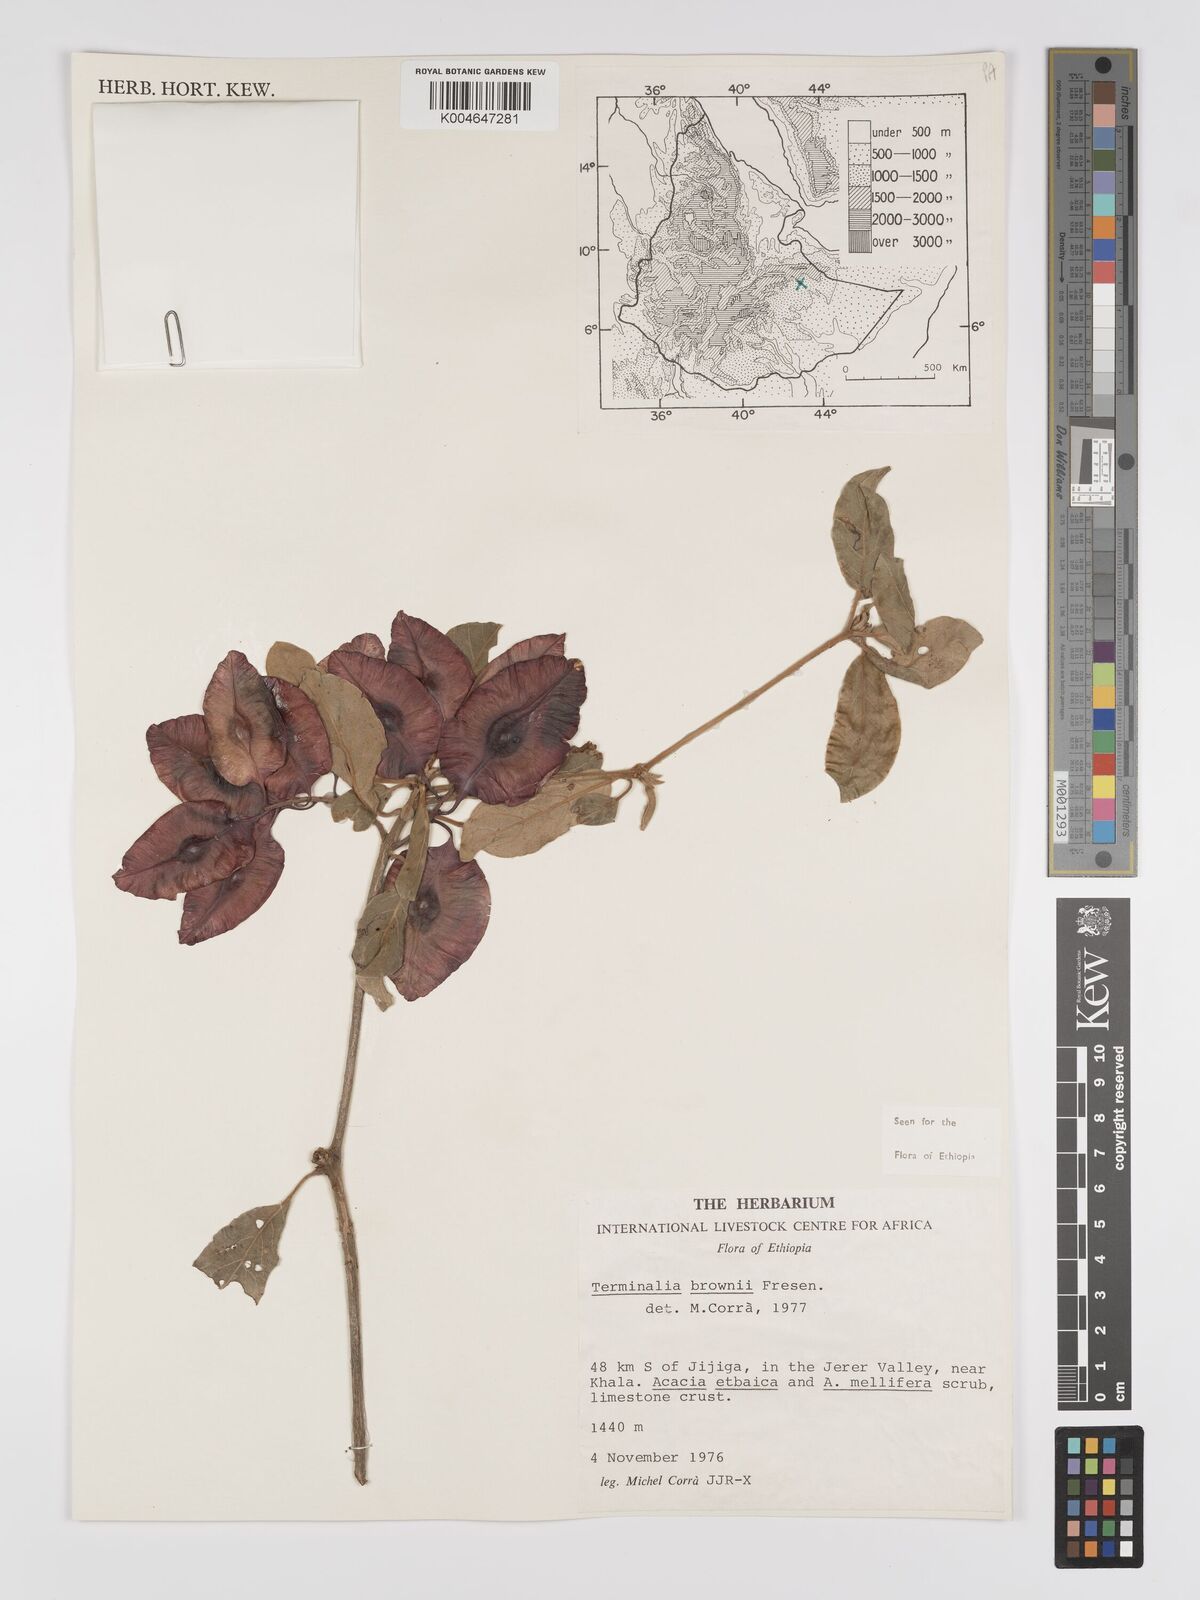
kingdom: Plantae
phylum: Tracheophyta
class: Magnoliopsida
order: Myrtales
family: Combretaceae
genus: Terminalia
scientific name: Terminalia brownii
